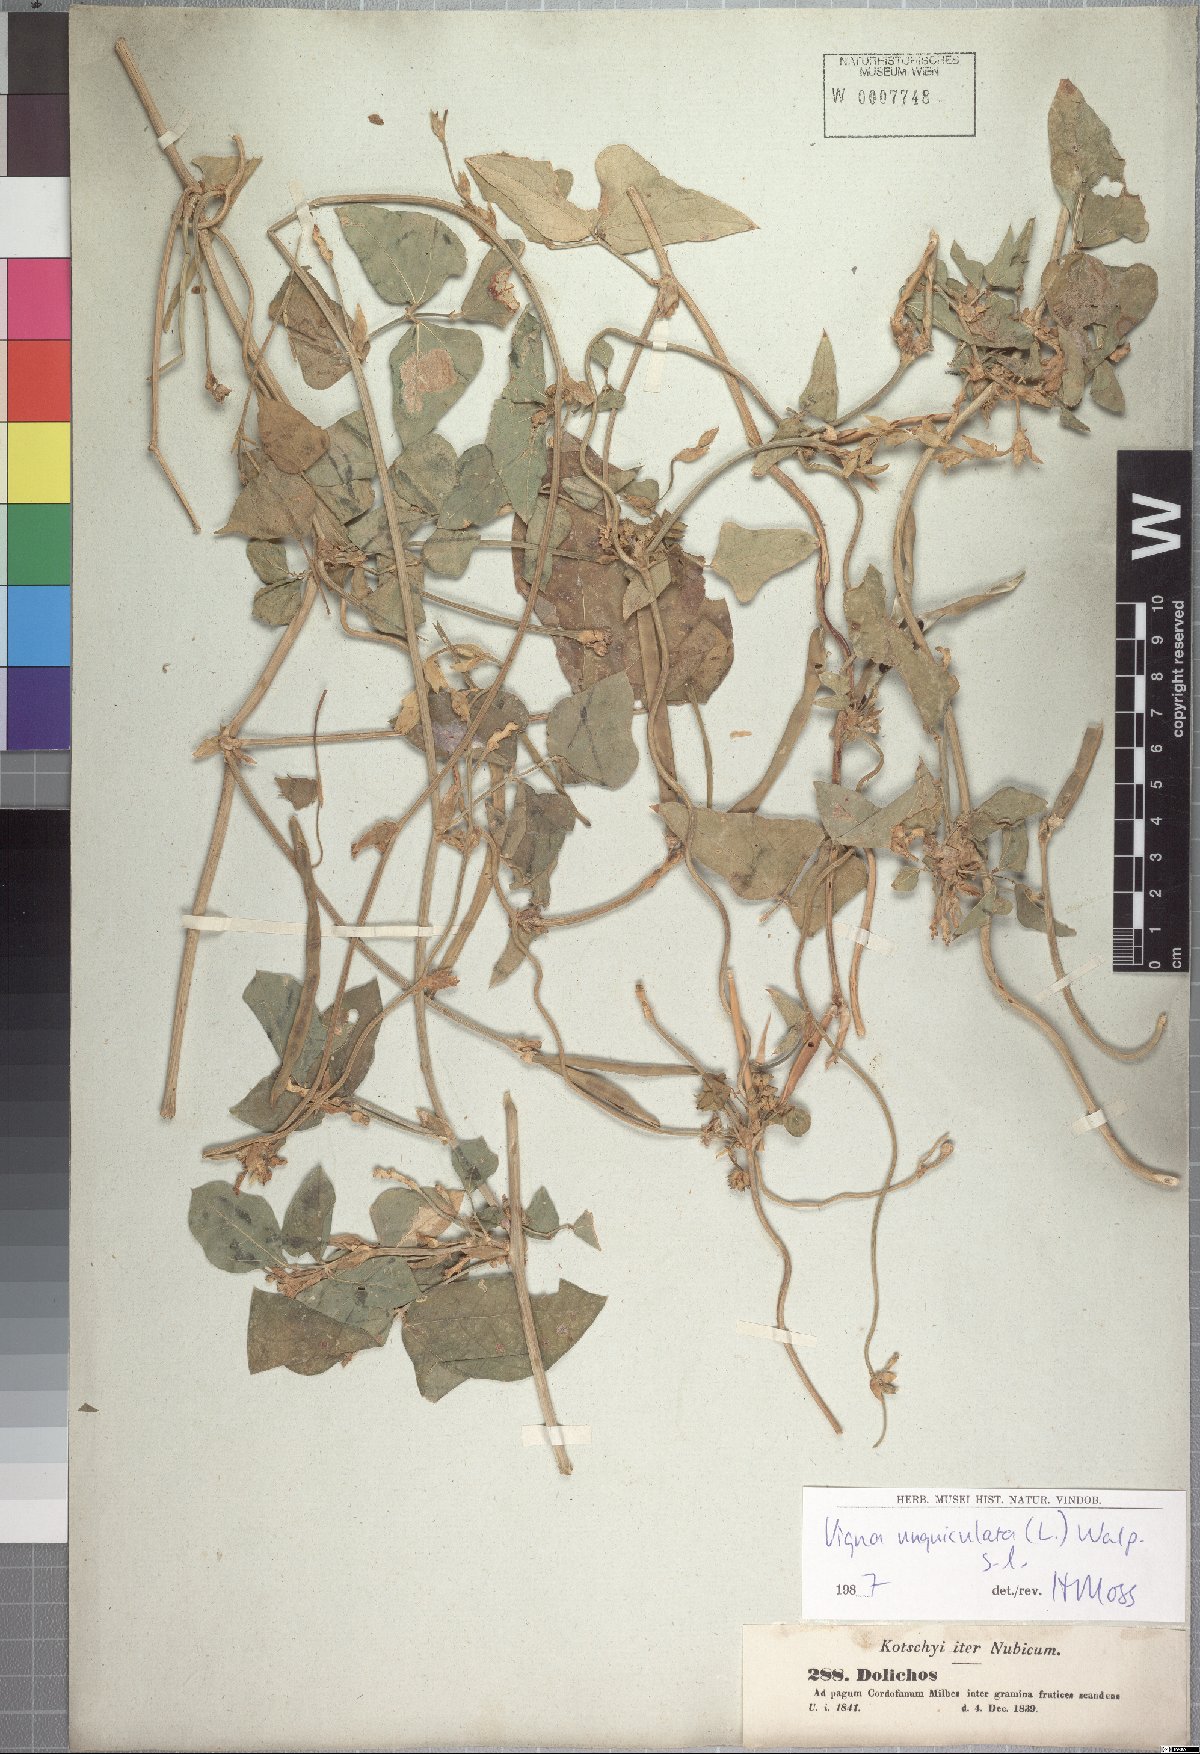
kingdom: Plantae
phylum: Tracheophyta
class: Magnoliopsida
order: Fabales
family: Fabaceae
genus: Vigna
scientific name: Vigna unguiculata
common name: Cowpea
